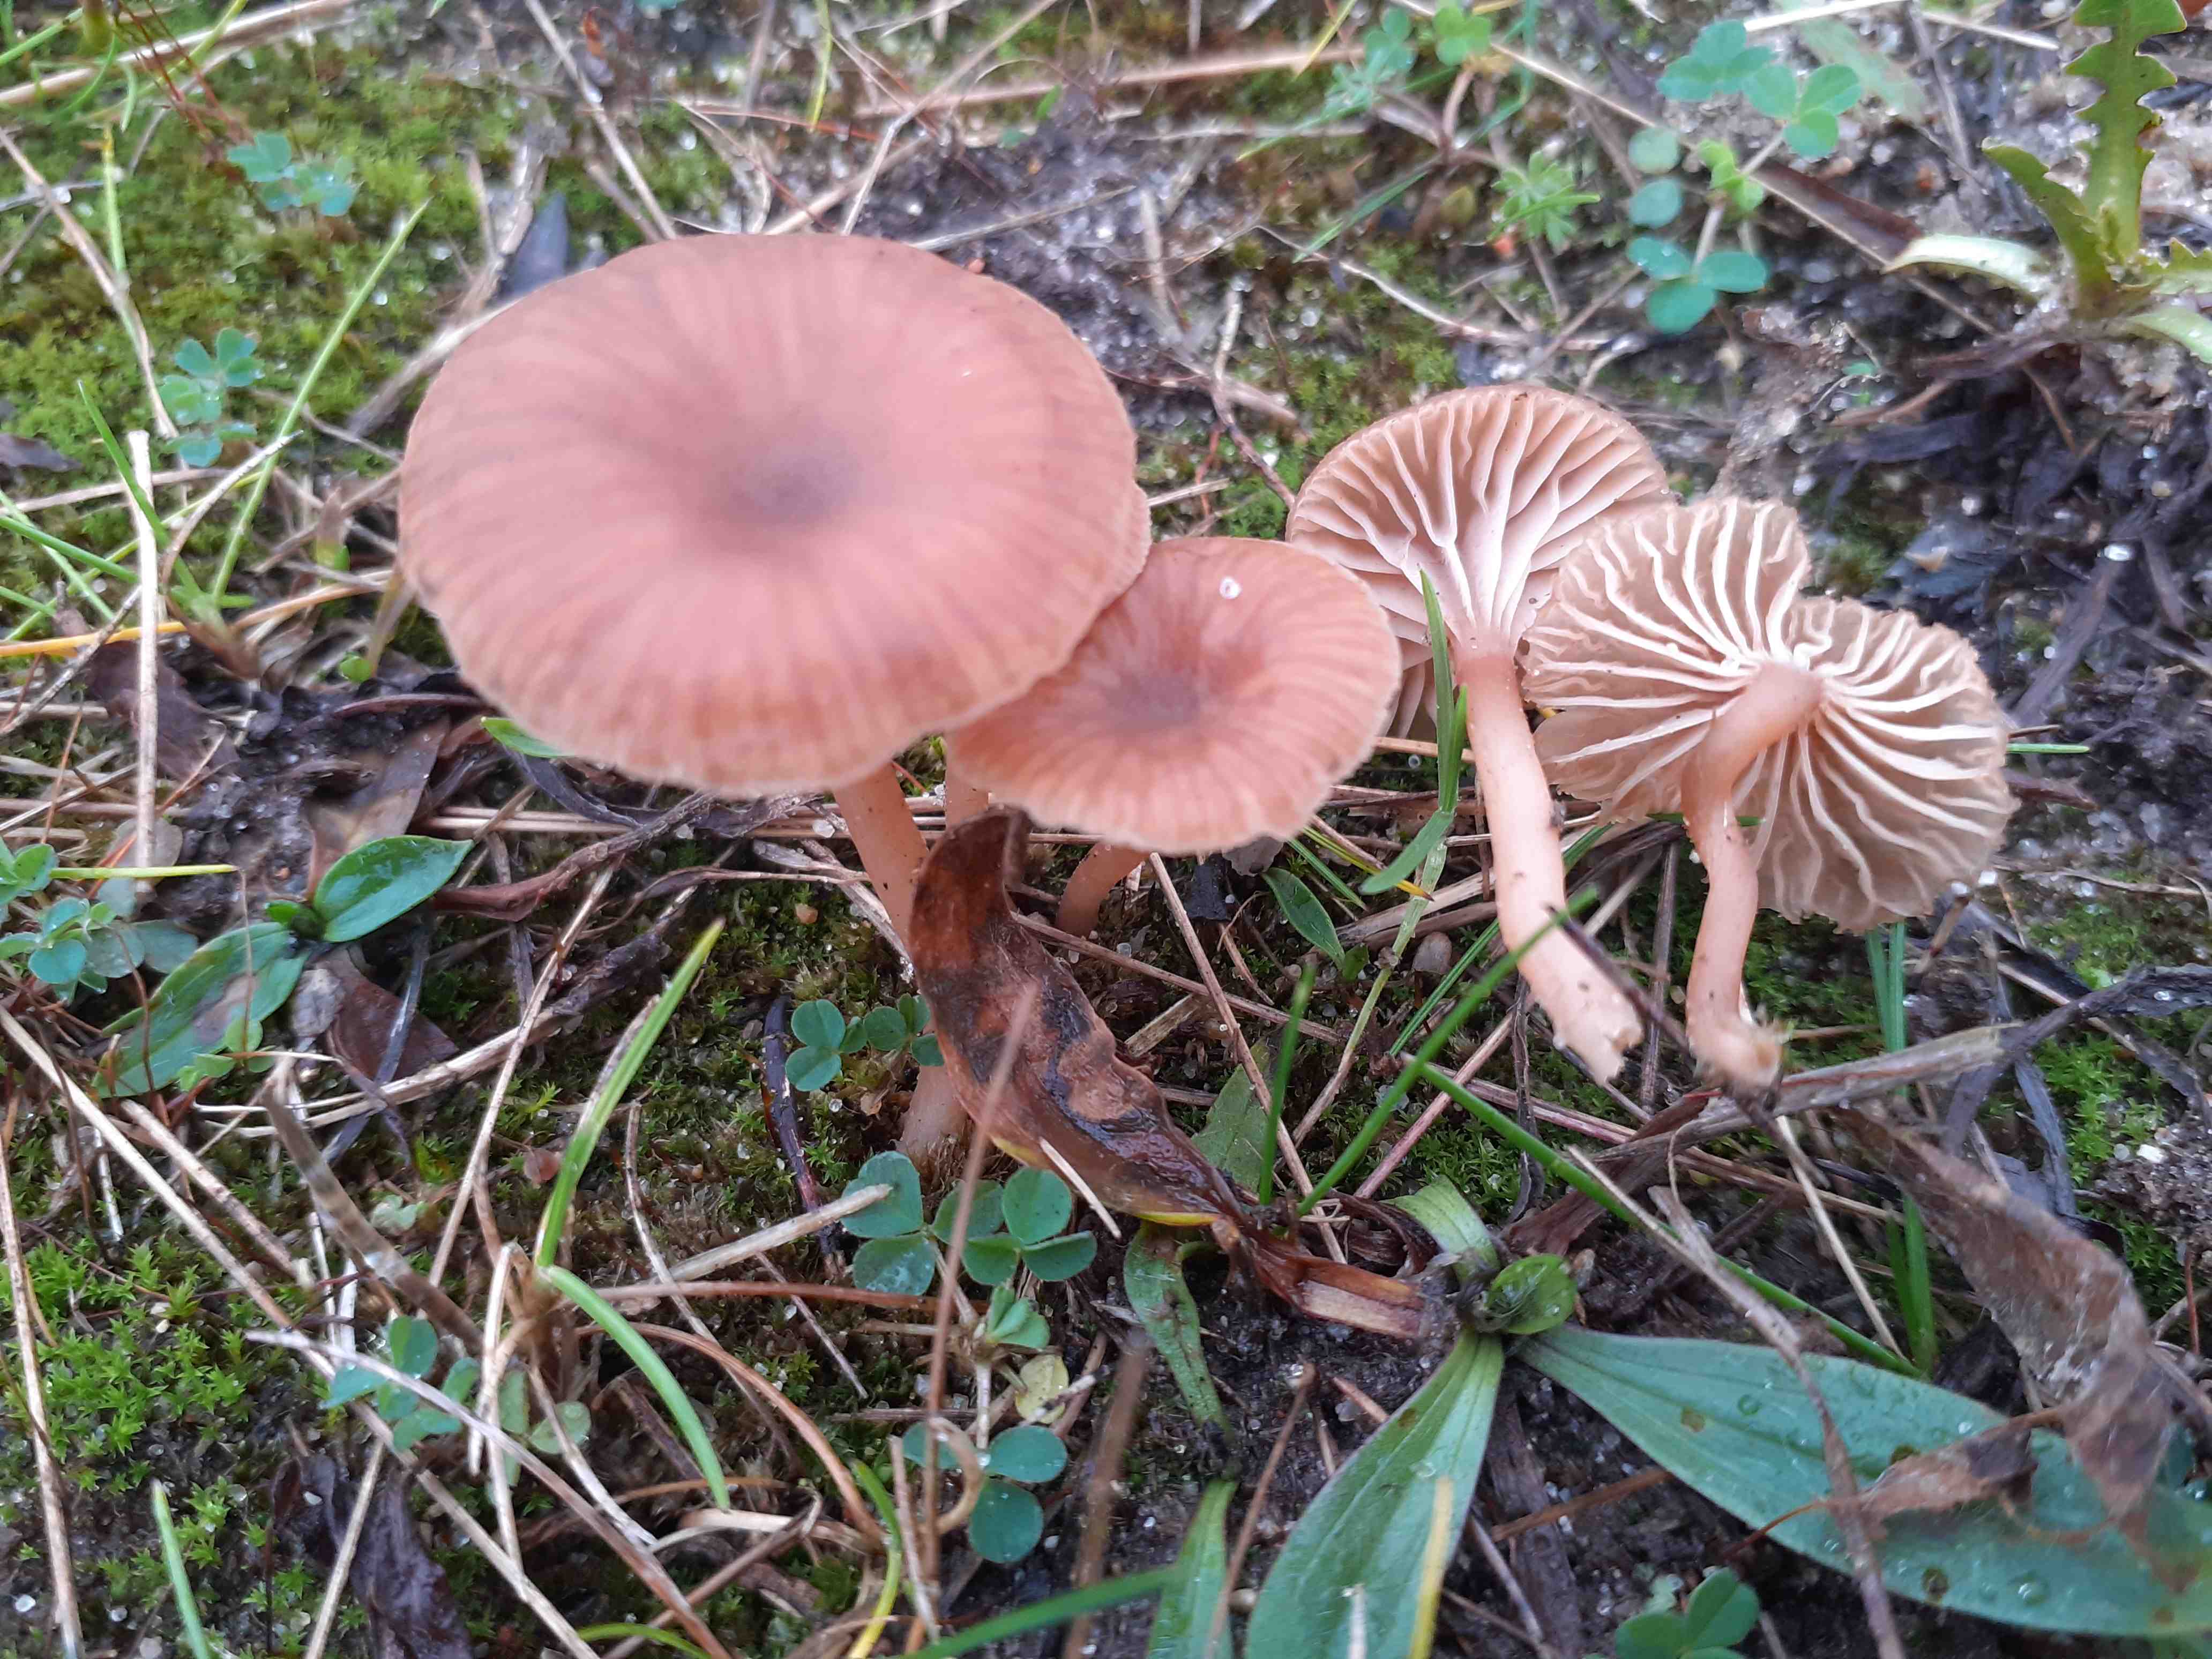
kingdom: Fungi
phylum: Basidiomycota
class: Agaricomycetes
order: Agaricales
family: Tricholomataceae
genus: Omphalina
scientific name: Omphalina pyxidata
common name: rødbrun navlehat
